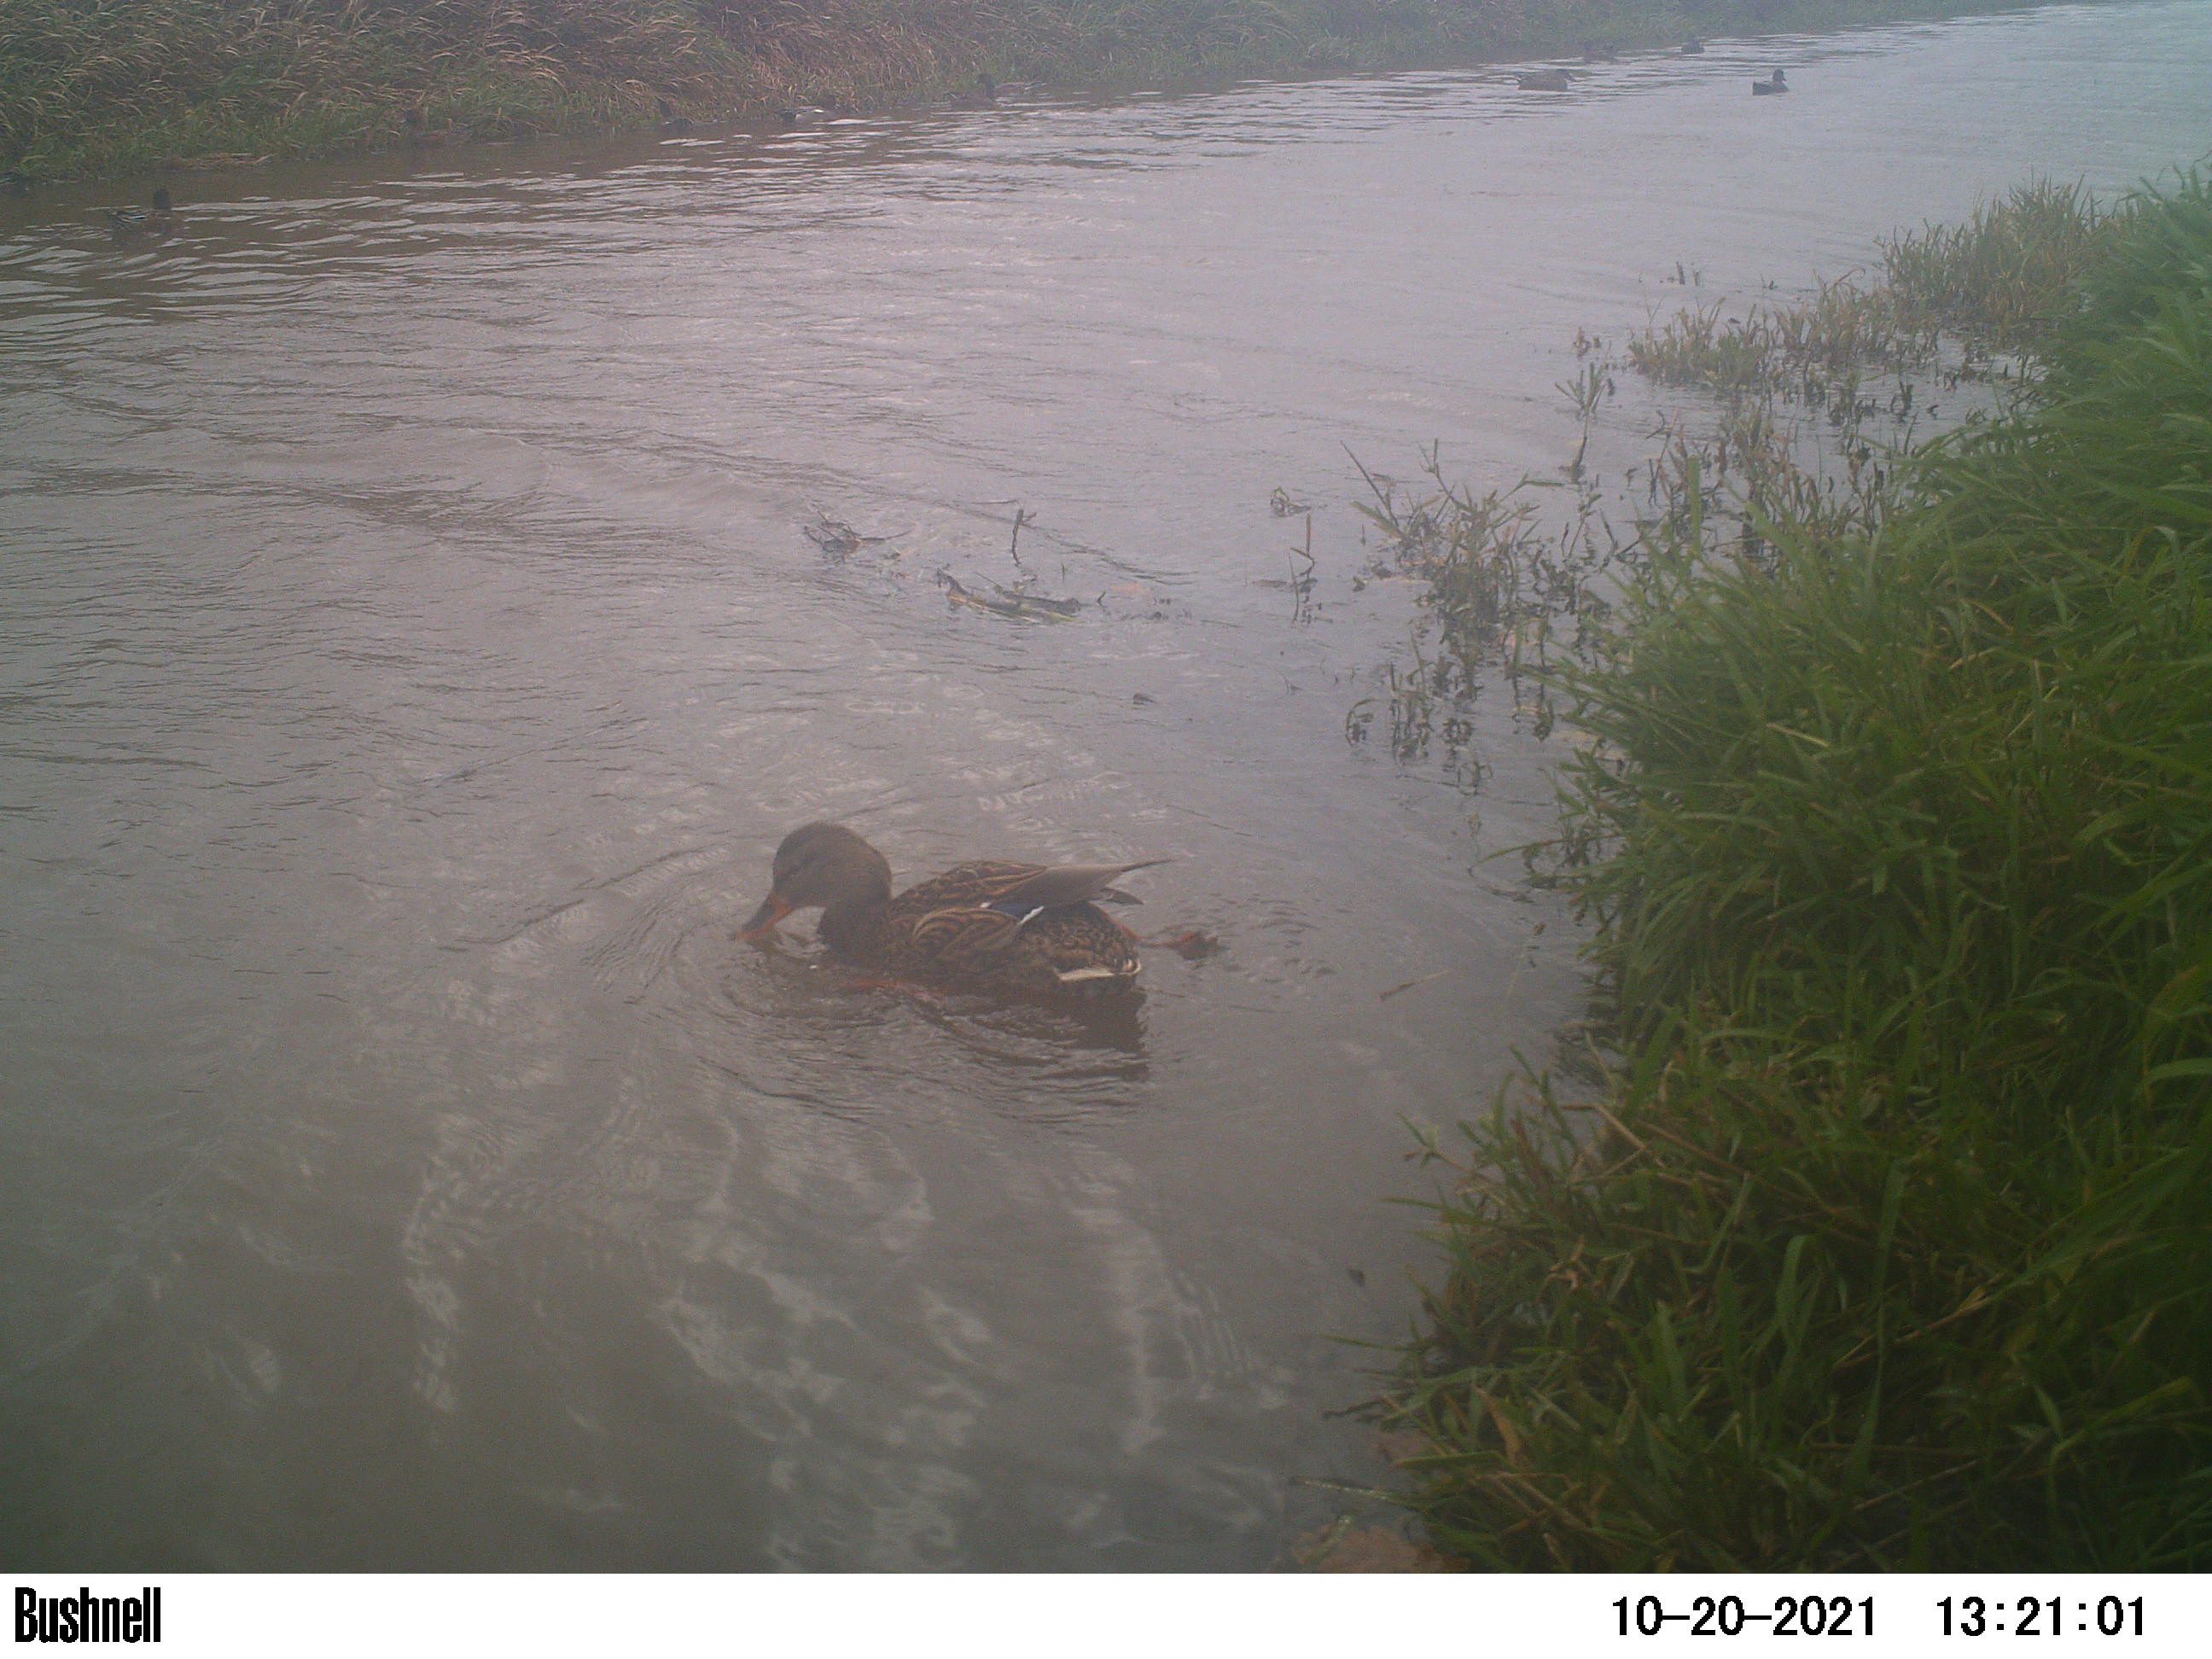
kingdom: Animalia
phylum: Chordata
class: Aves
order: Anseriformes
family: Anatidae
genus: Anas
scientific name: Anas
